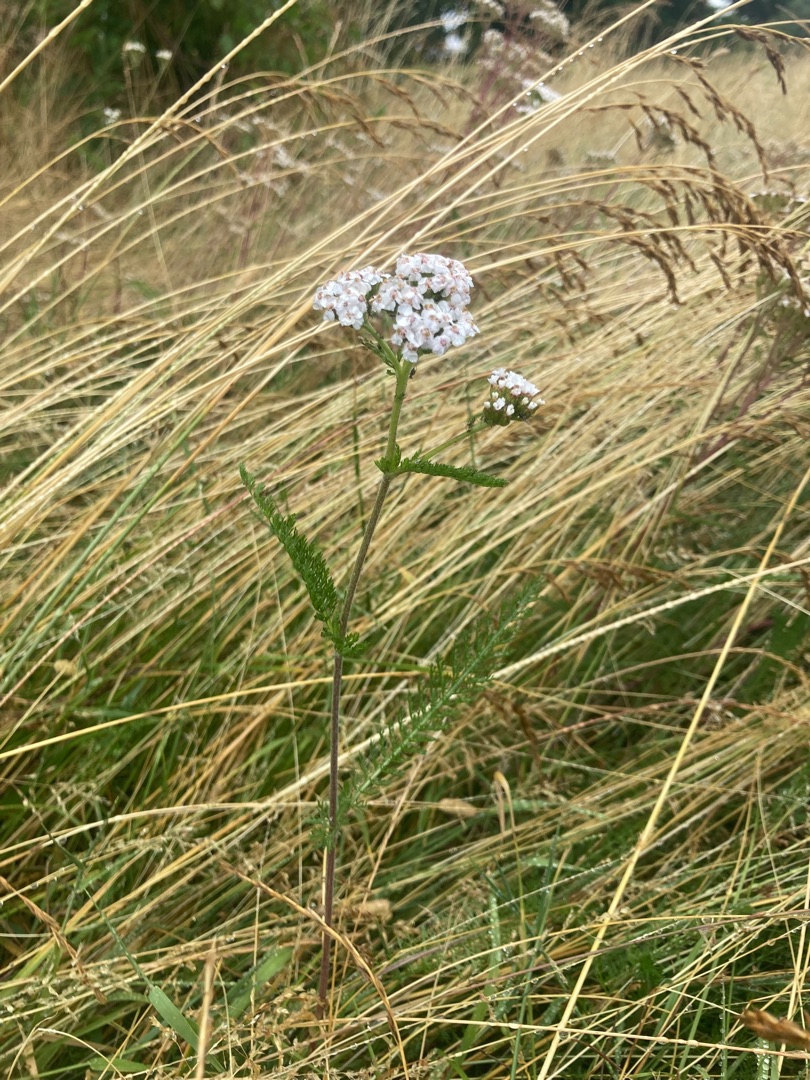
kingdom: Plantae
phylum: Tracheophyta
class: Magnoliopsida
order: Asterales
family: Asteraceae
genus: Achillea
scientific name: Achillea millefolium
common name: Almindelig røllike
